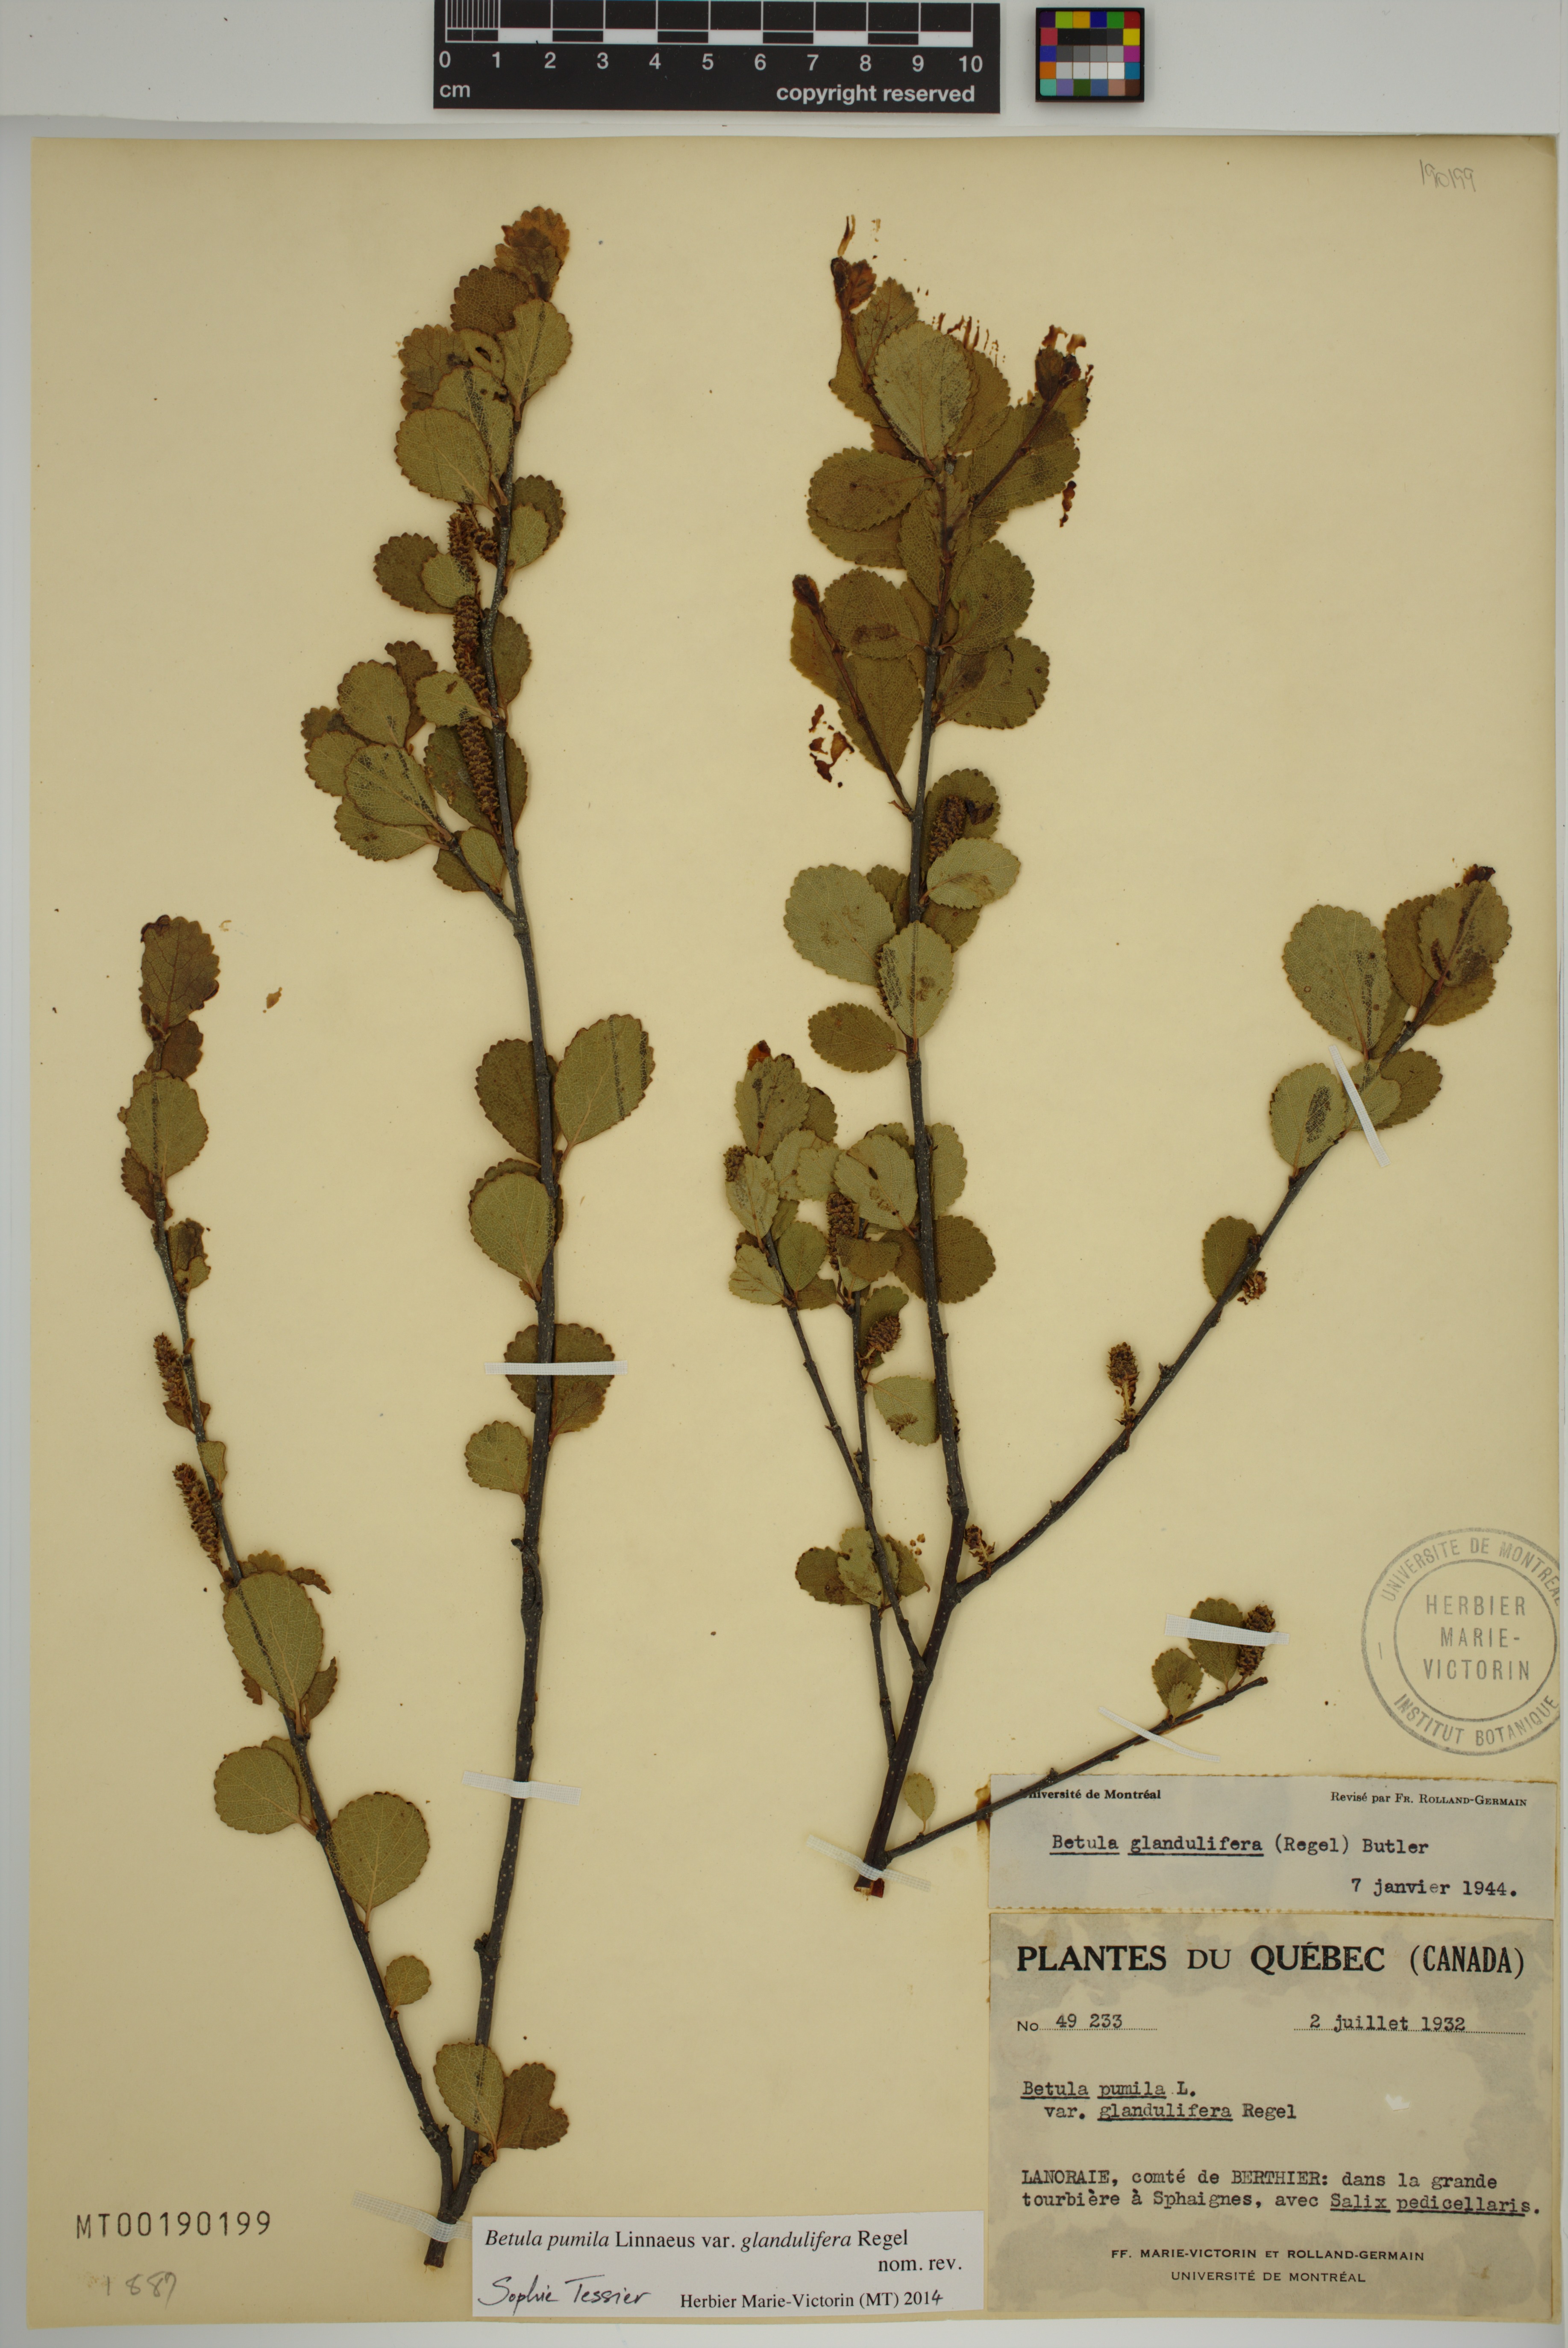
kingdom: Plantae
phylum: Tracheophyta
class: Magnoliopsida
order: Fagales
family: Betulaceae
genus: Betula
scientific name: Betula pumila
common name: Bog birch
